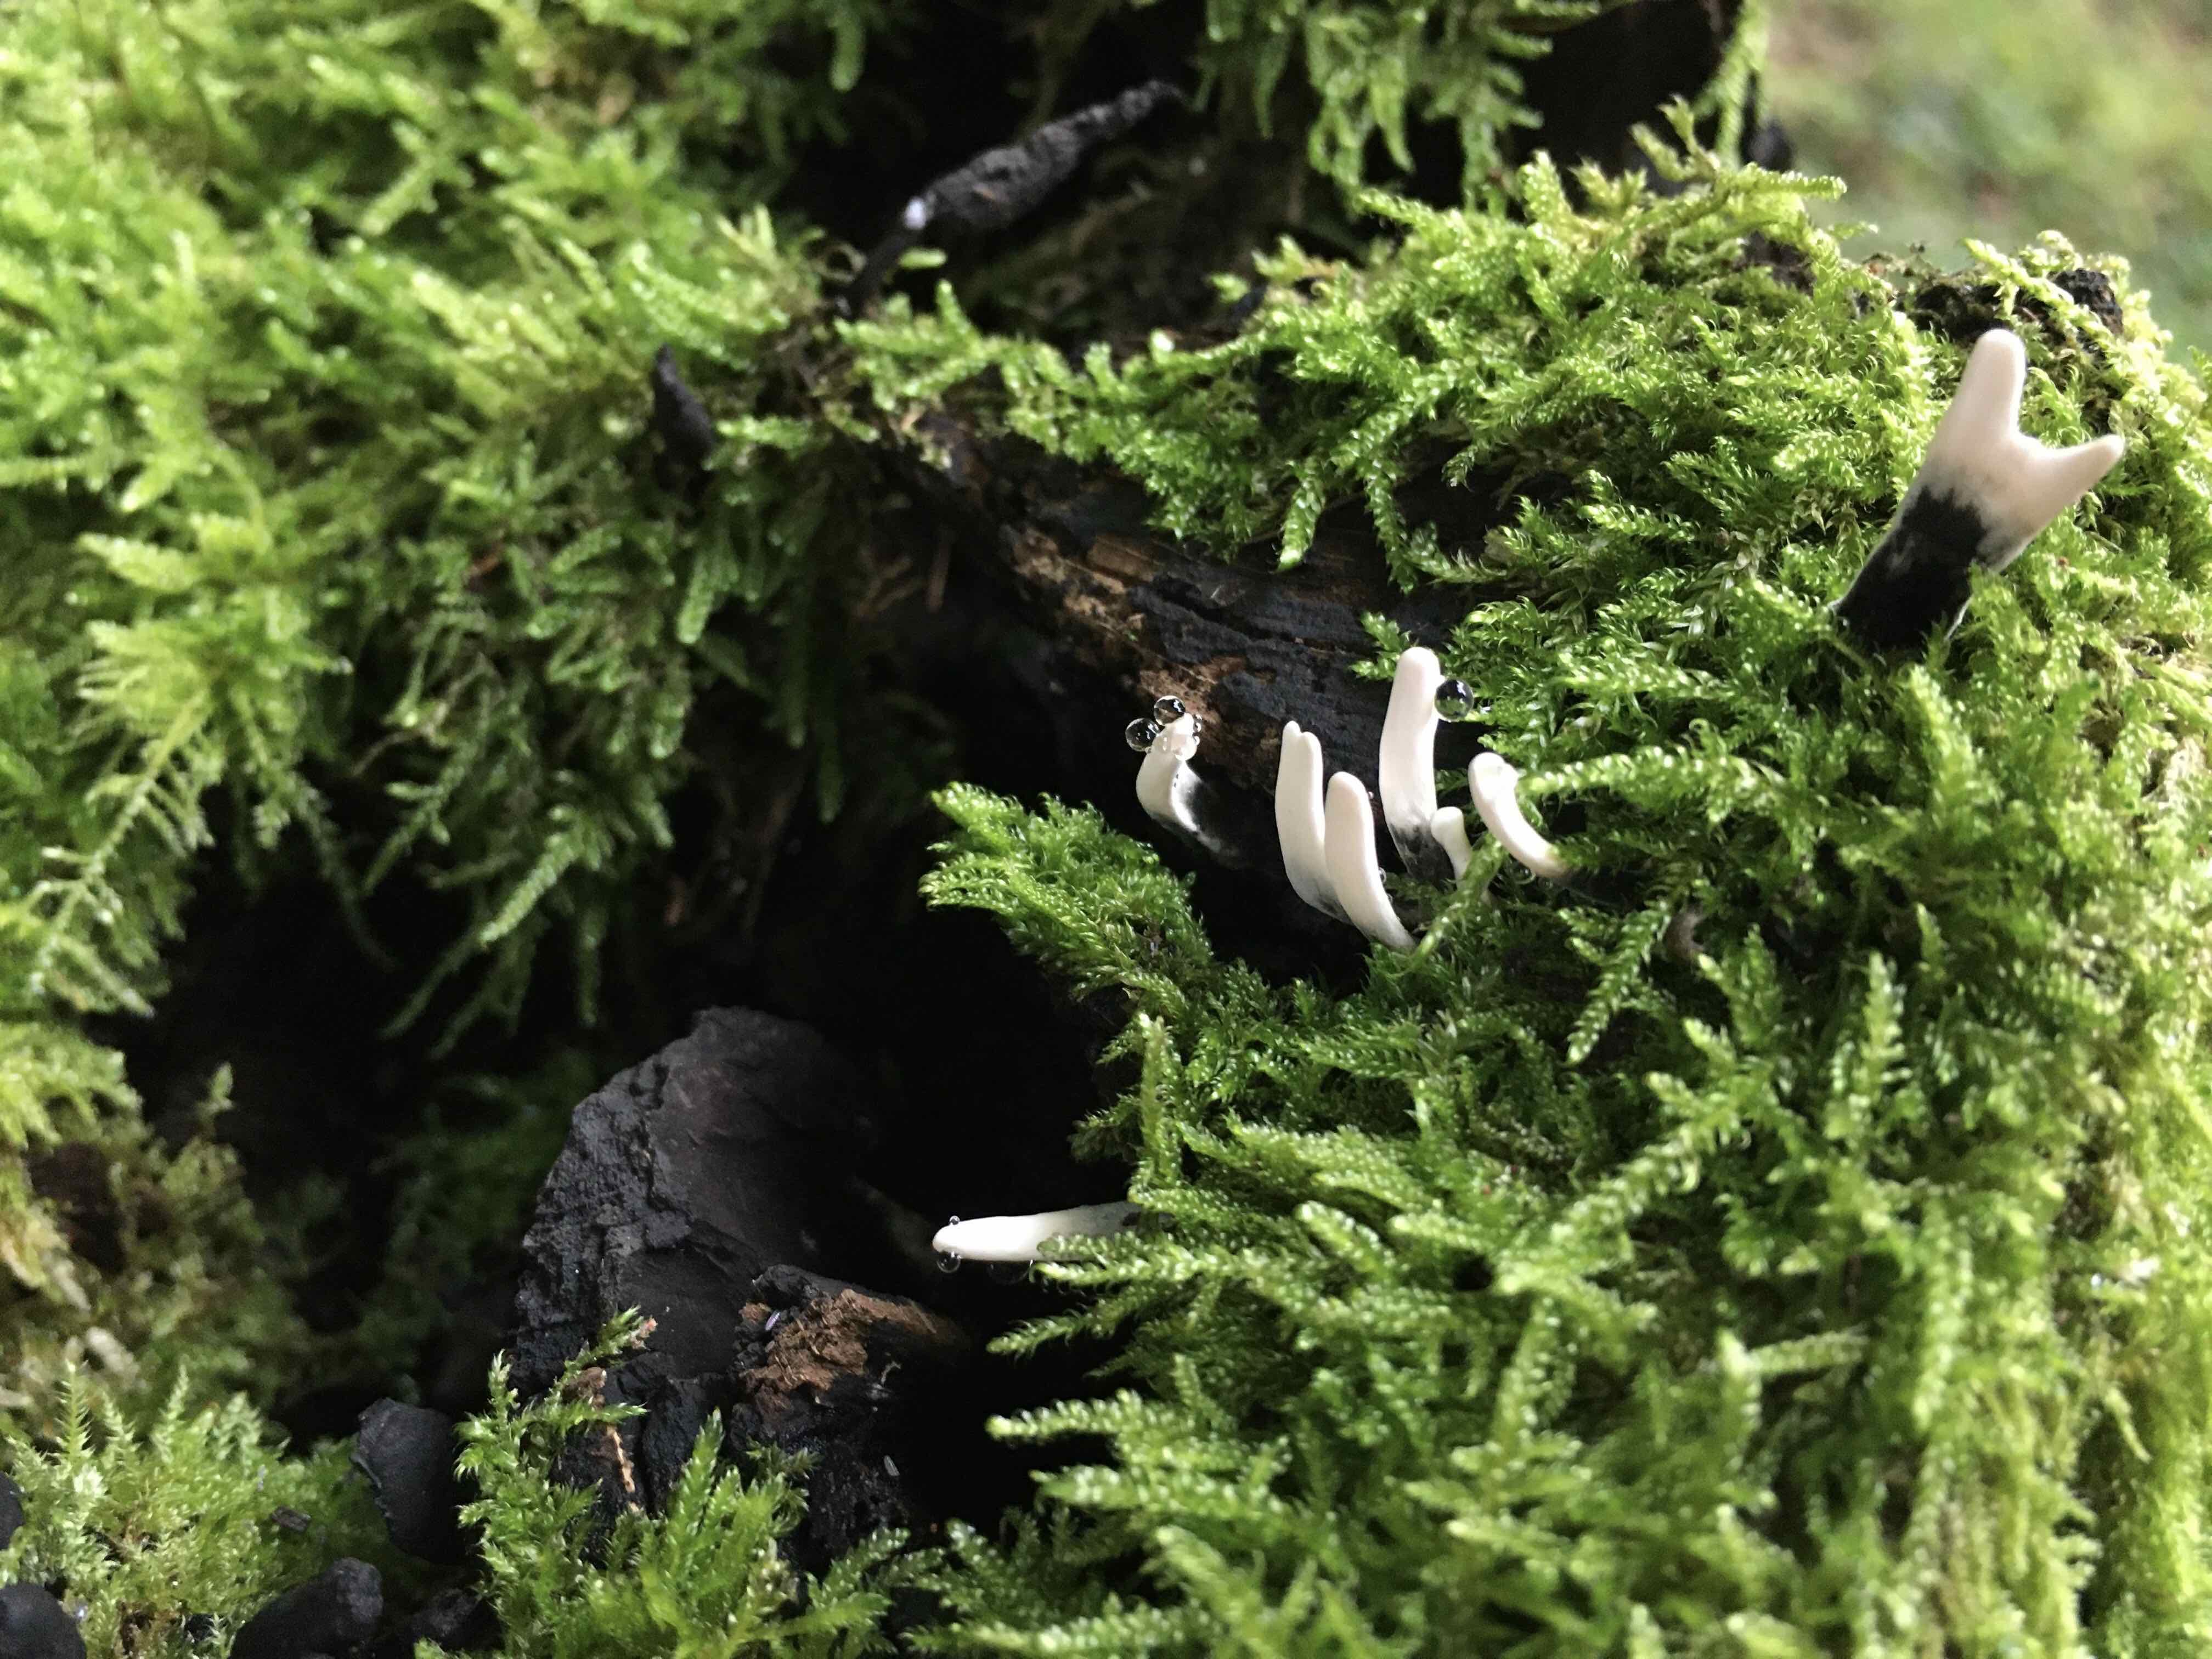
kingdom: Fungi
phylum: Ascomycota
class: Sordariomycetes
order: Xylariales
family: Xylariaceae
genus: Xylaria
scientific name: Xylaria hypoxylon
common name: grenet stødsvamp
